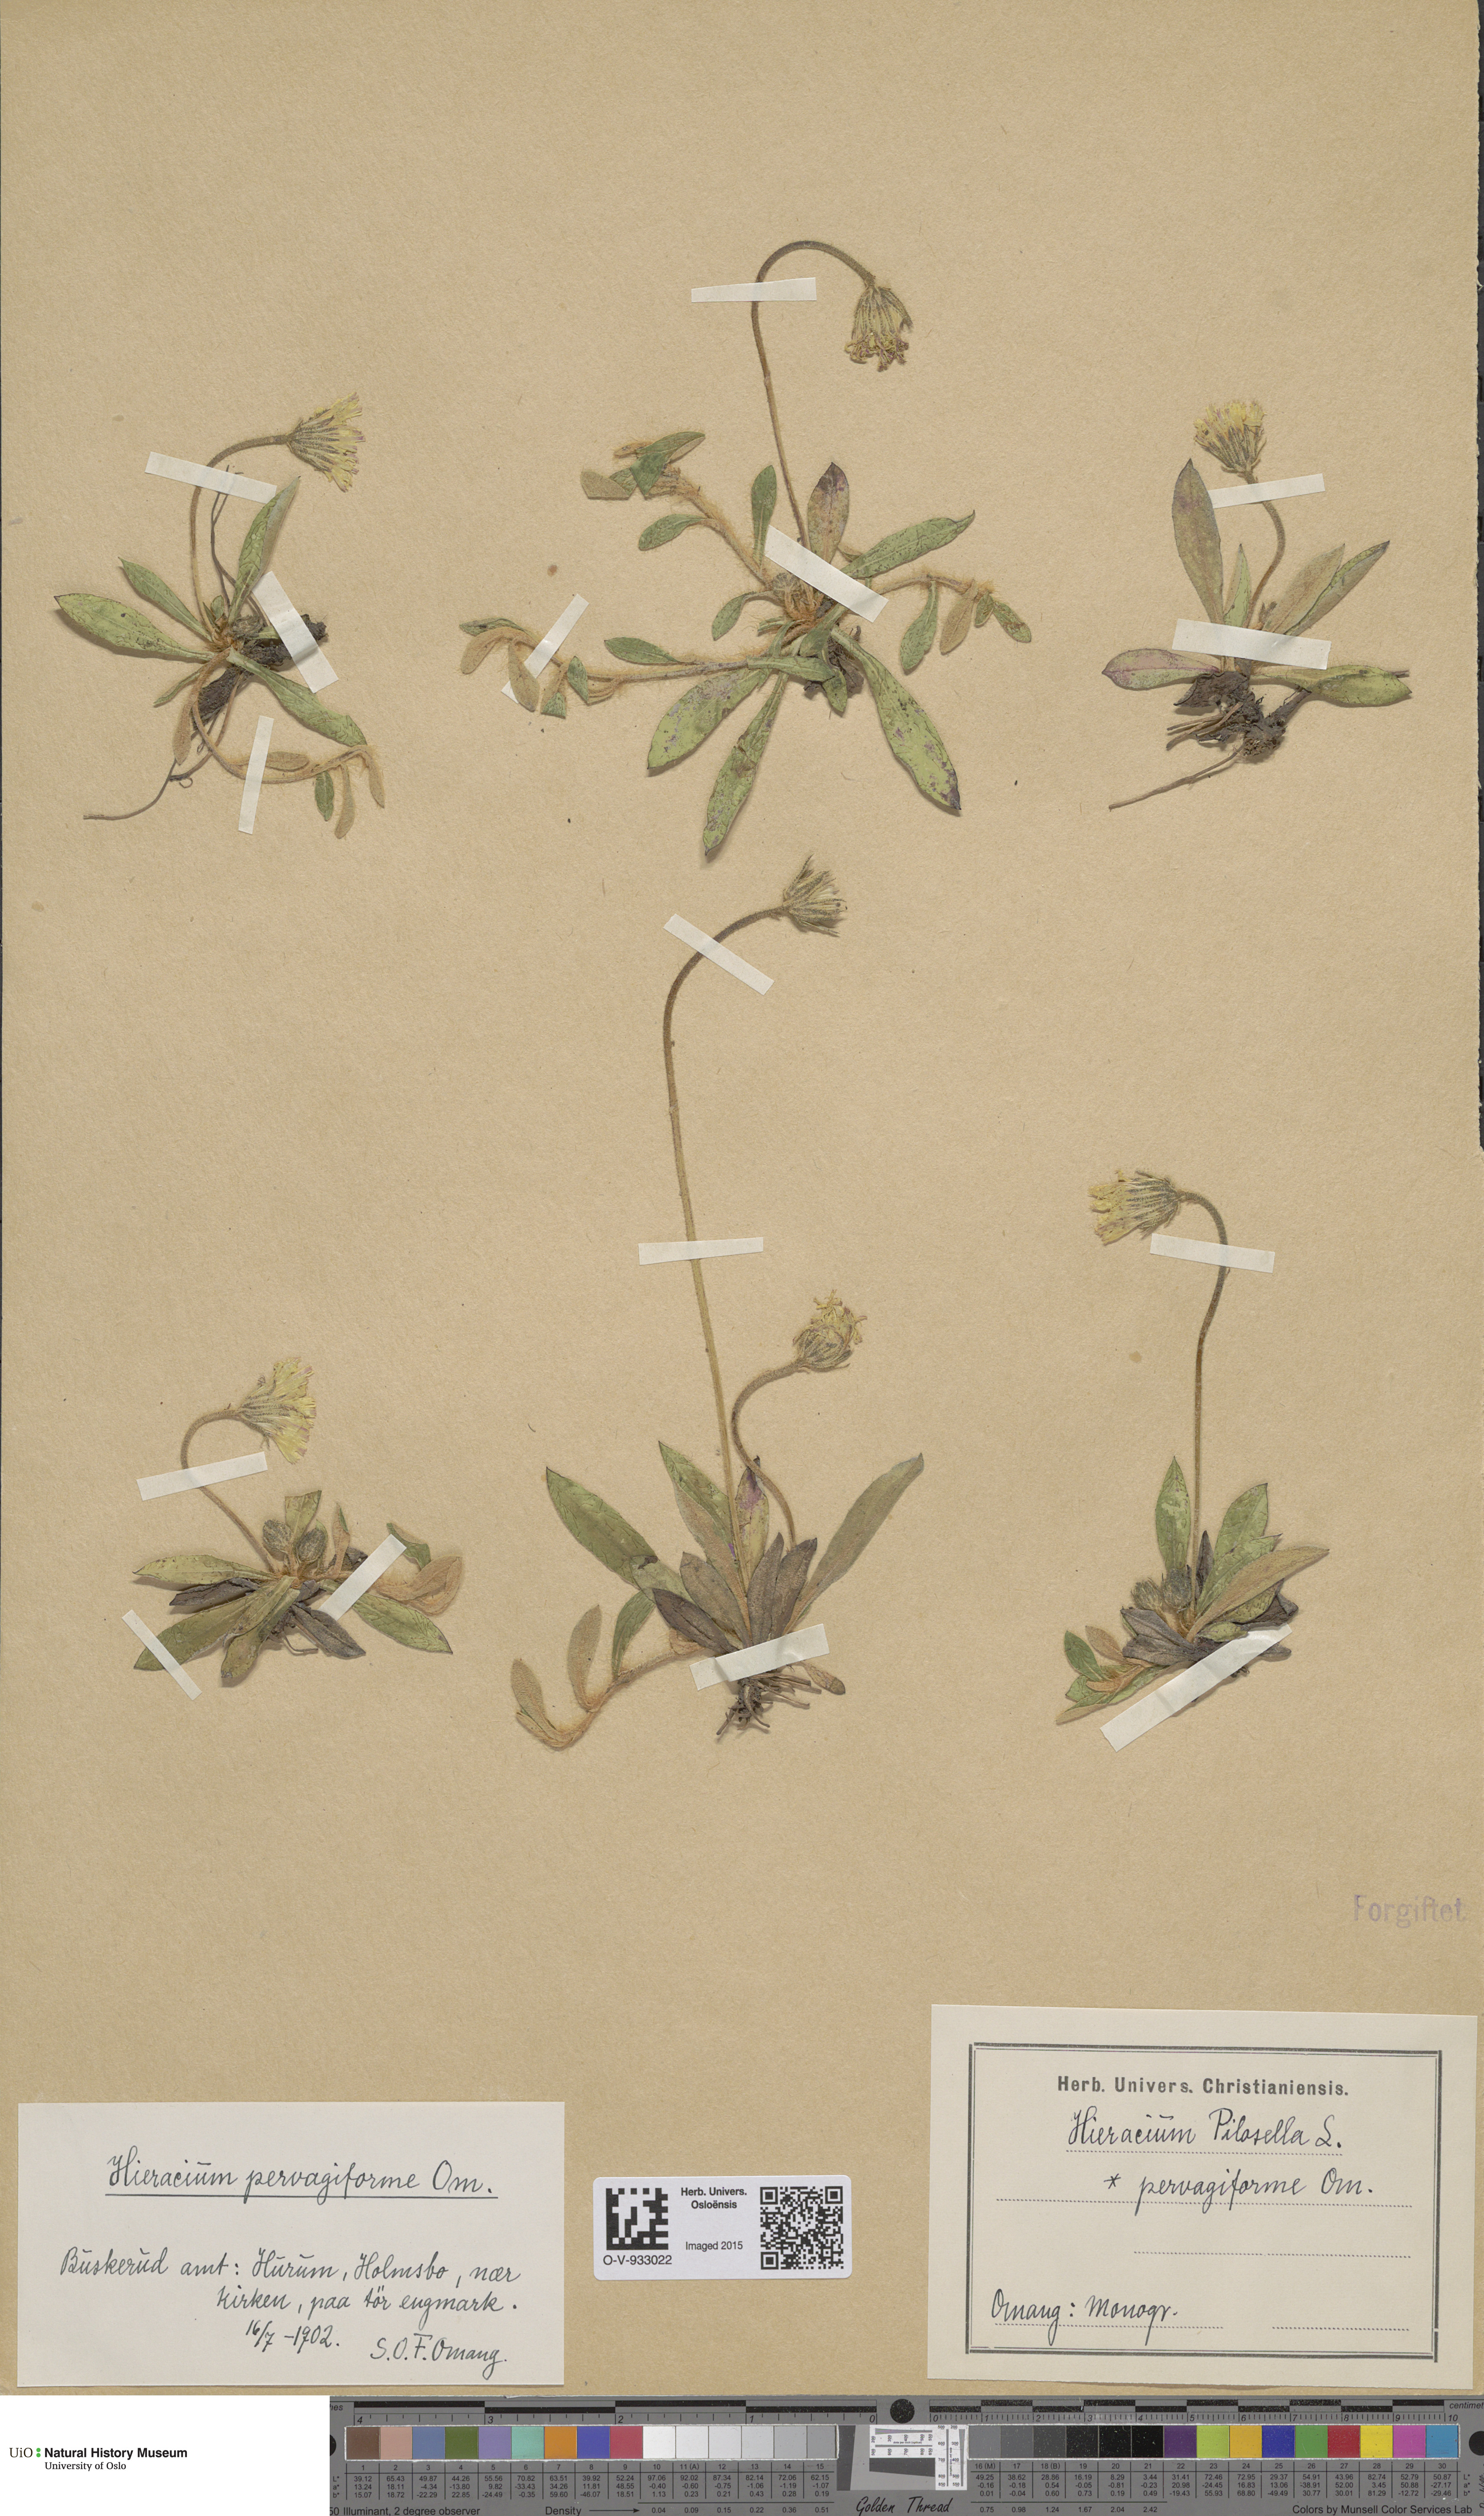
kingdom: Plantae
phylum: Tracheophyta
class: Magnoliopsida
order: Asterales
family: Asteraceae
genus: Pilosella
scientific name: Pilosella officinarum
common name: Mouse-ear hawkweed
